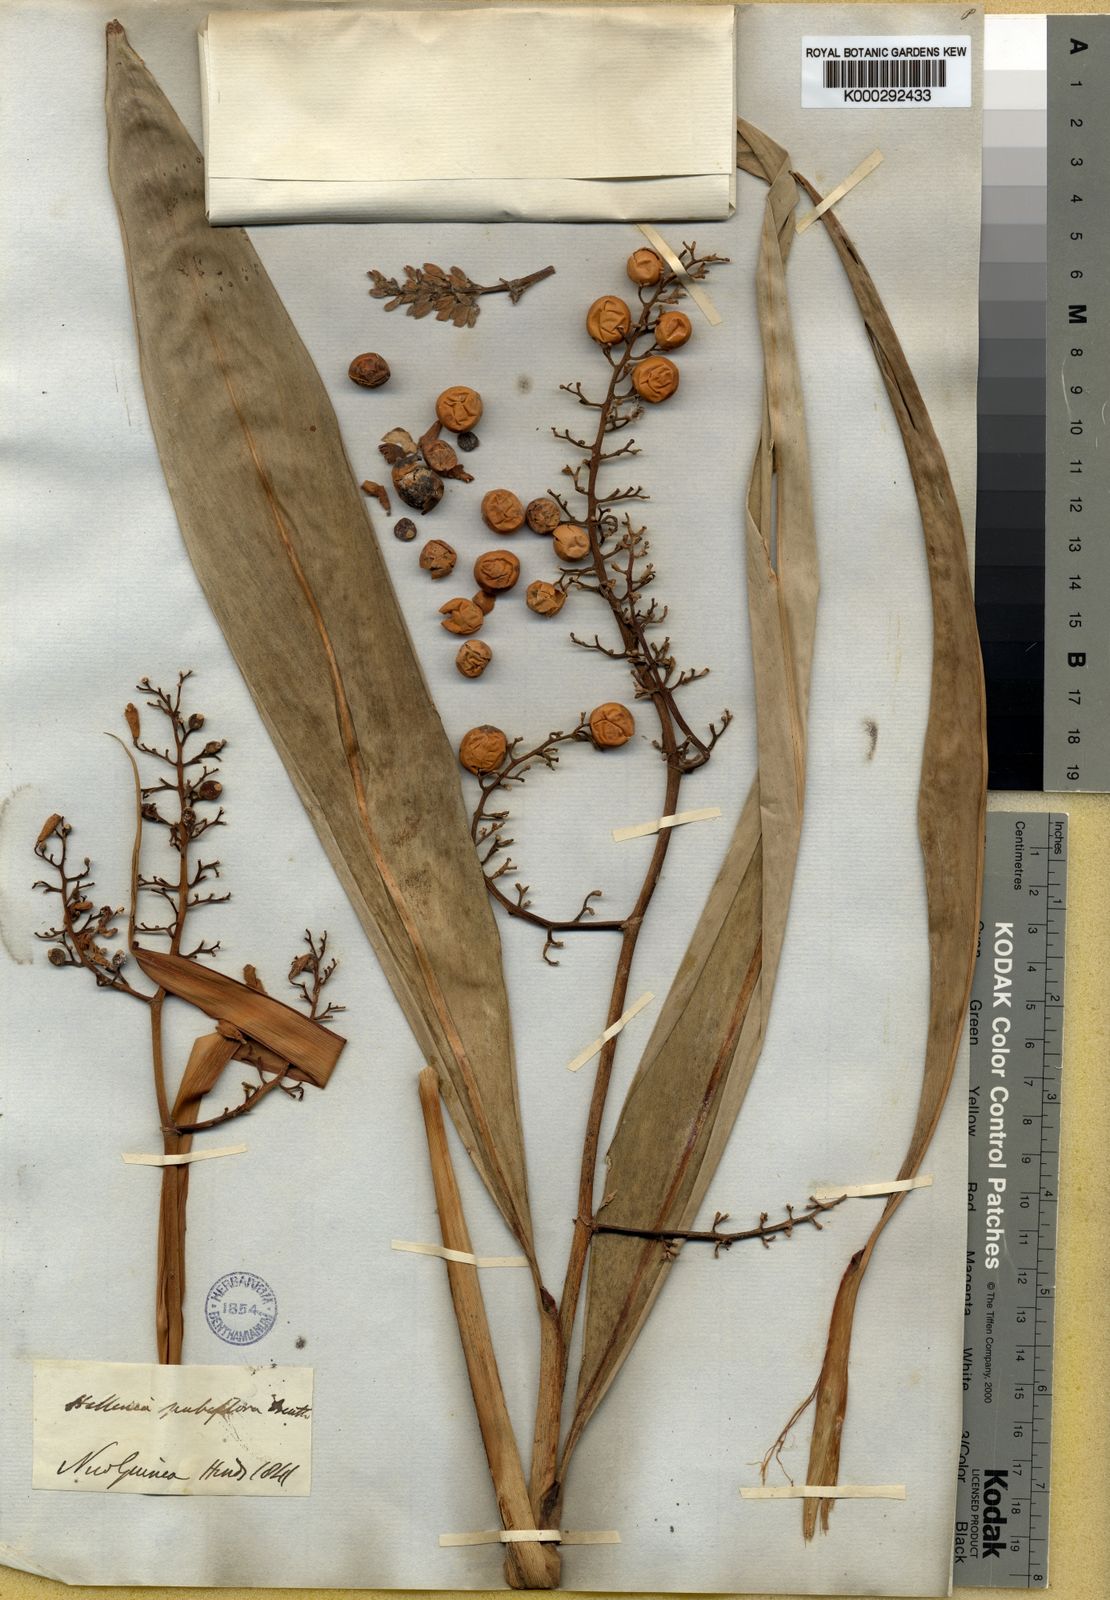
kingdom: Plantae
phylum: Tracheophyta
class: Liliopsida
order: Zingiberales
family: Zingiberaceae
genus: Alpinia
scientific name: Alpinia pubiflora
